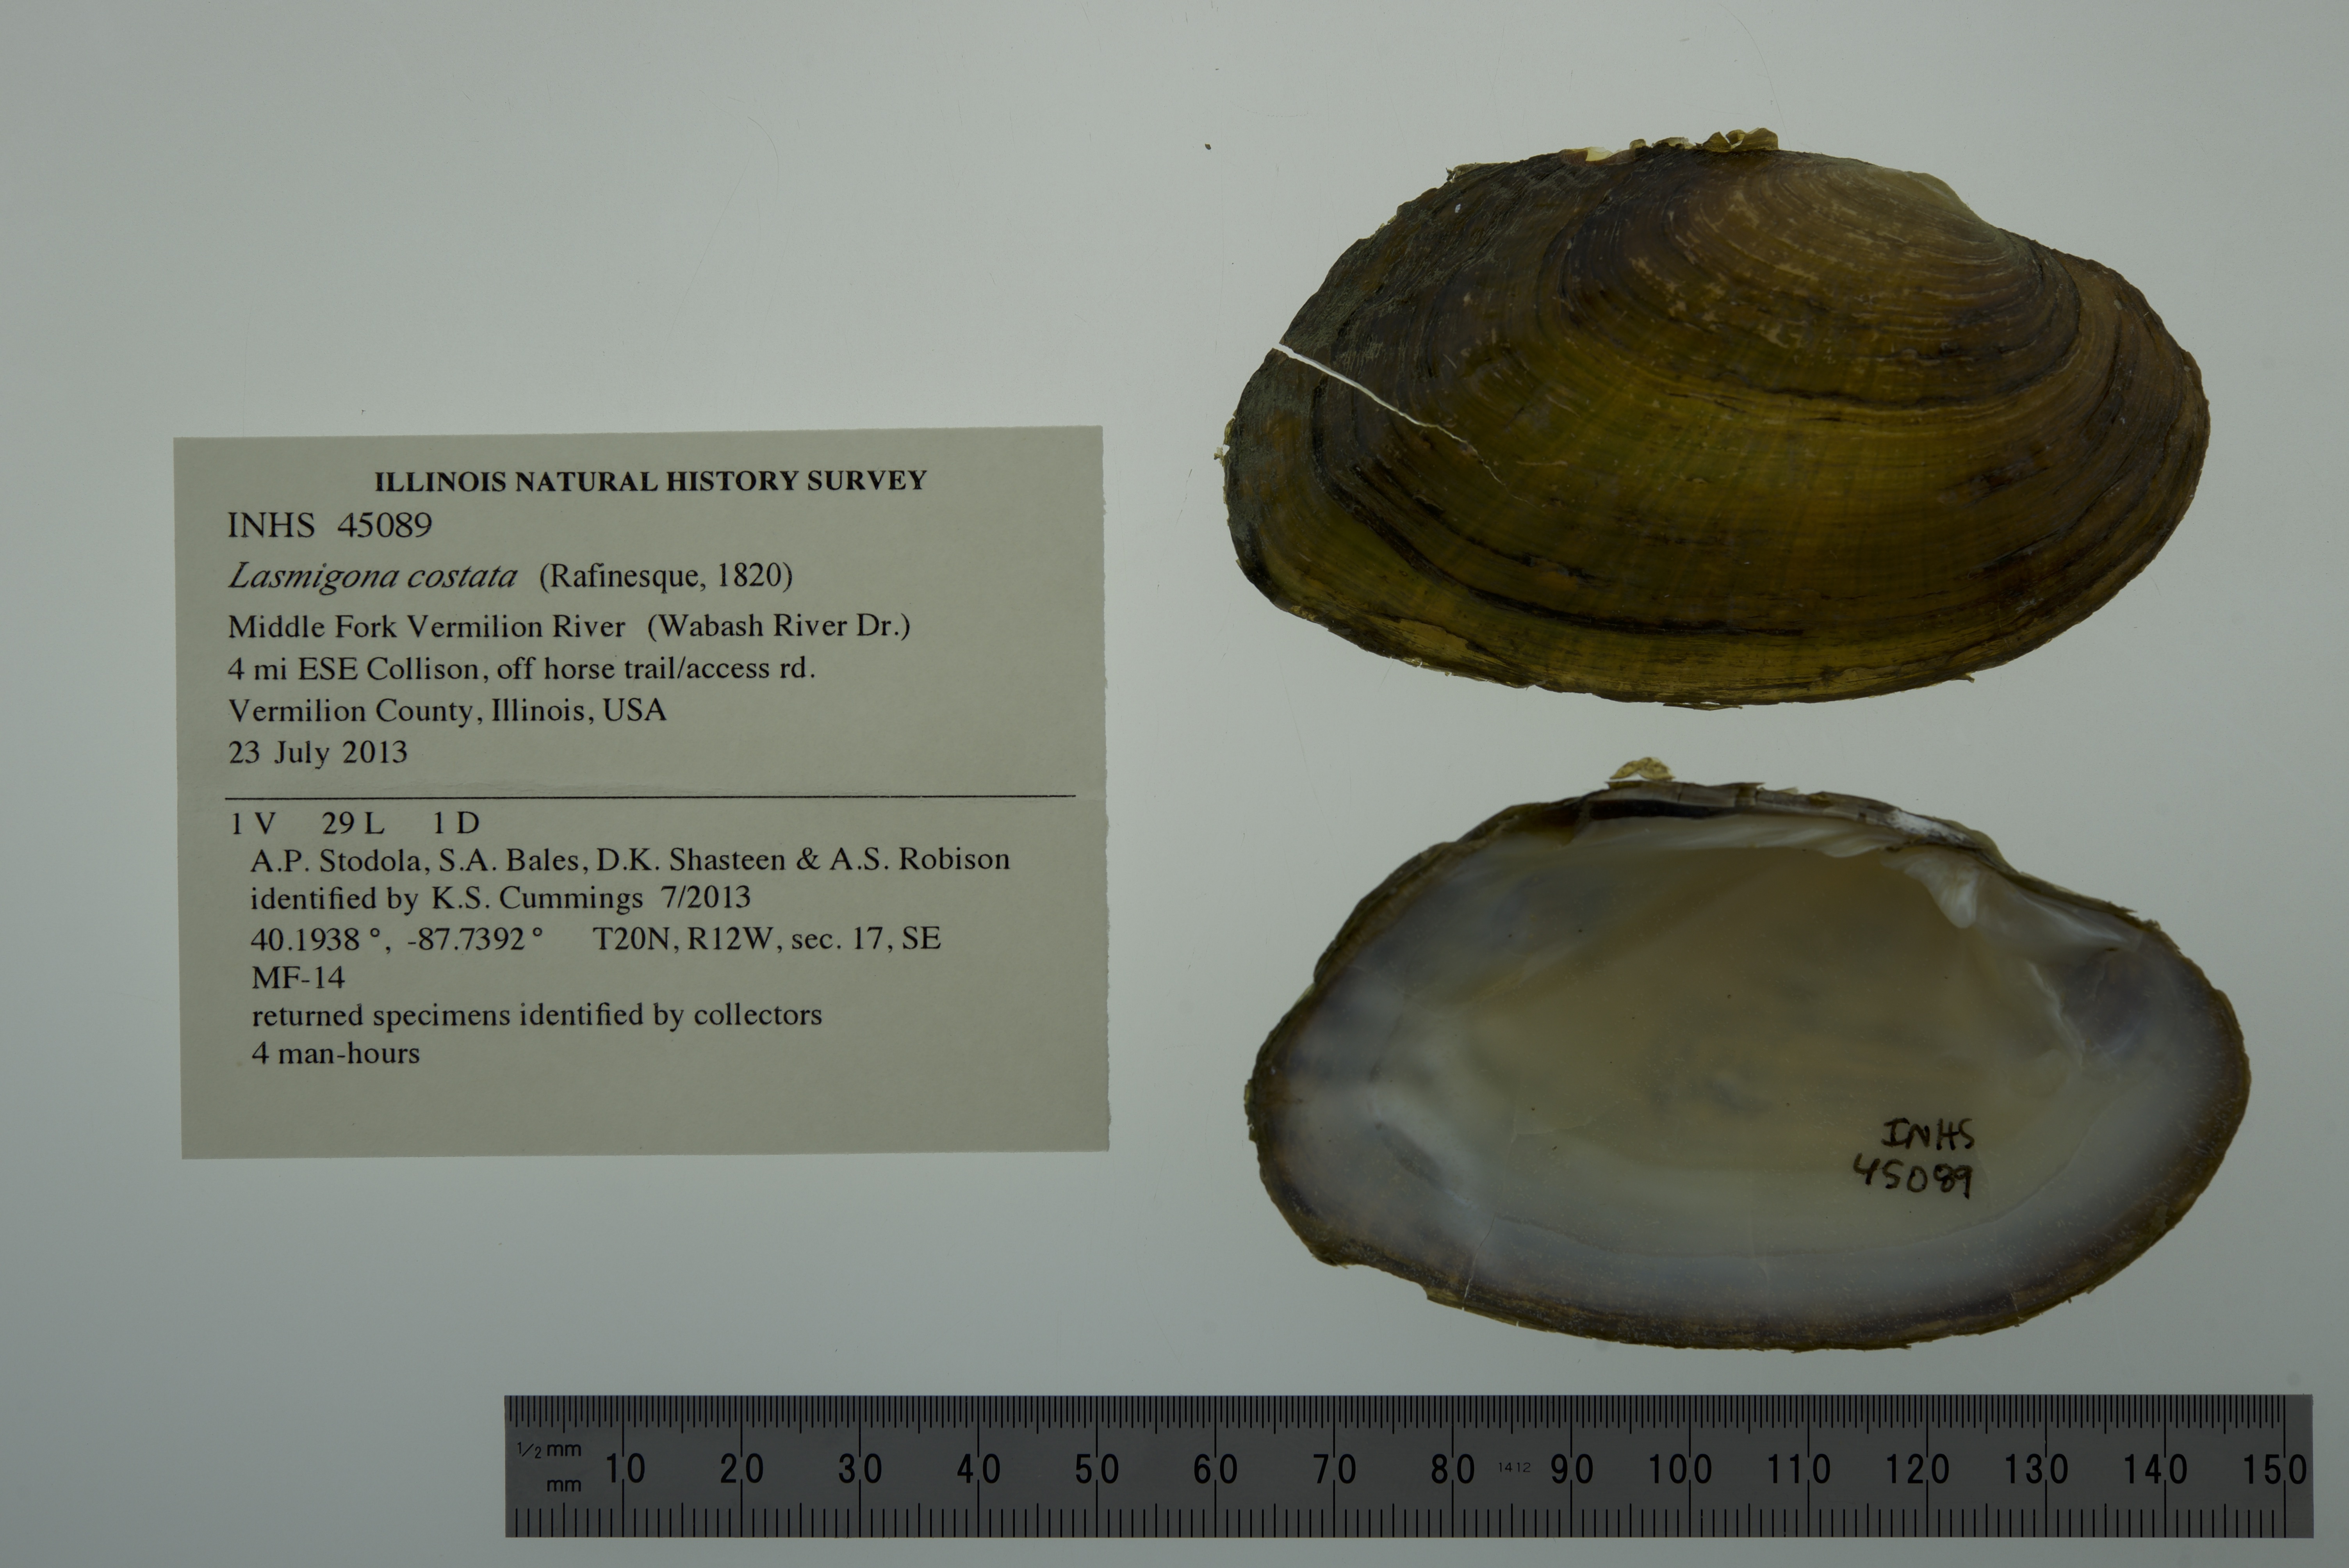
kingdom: Animalia
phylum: Mollusca
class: Bivalvia
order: Unionida
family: Unionidae
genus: Lasmigona
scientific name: Lasmigona costata
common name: Flutedshell
